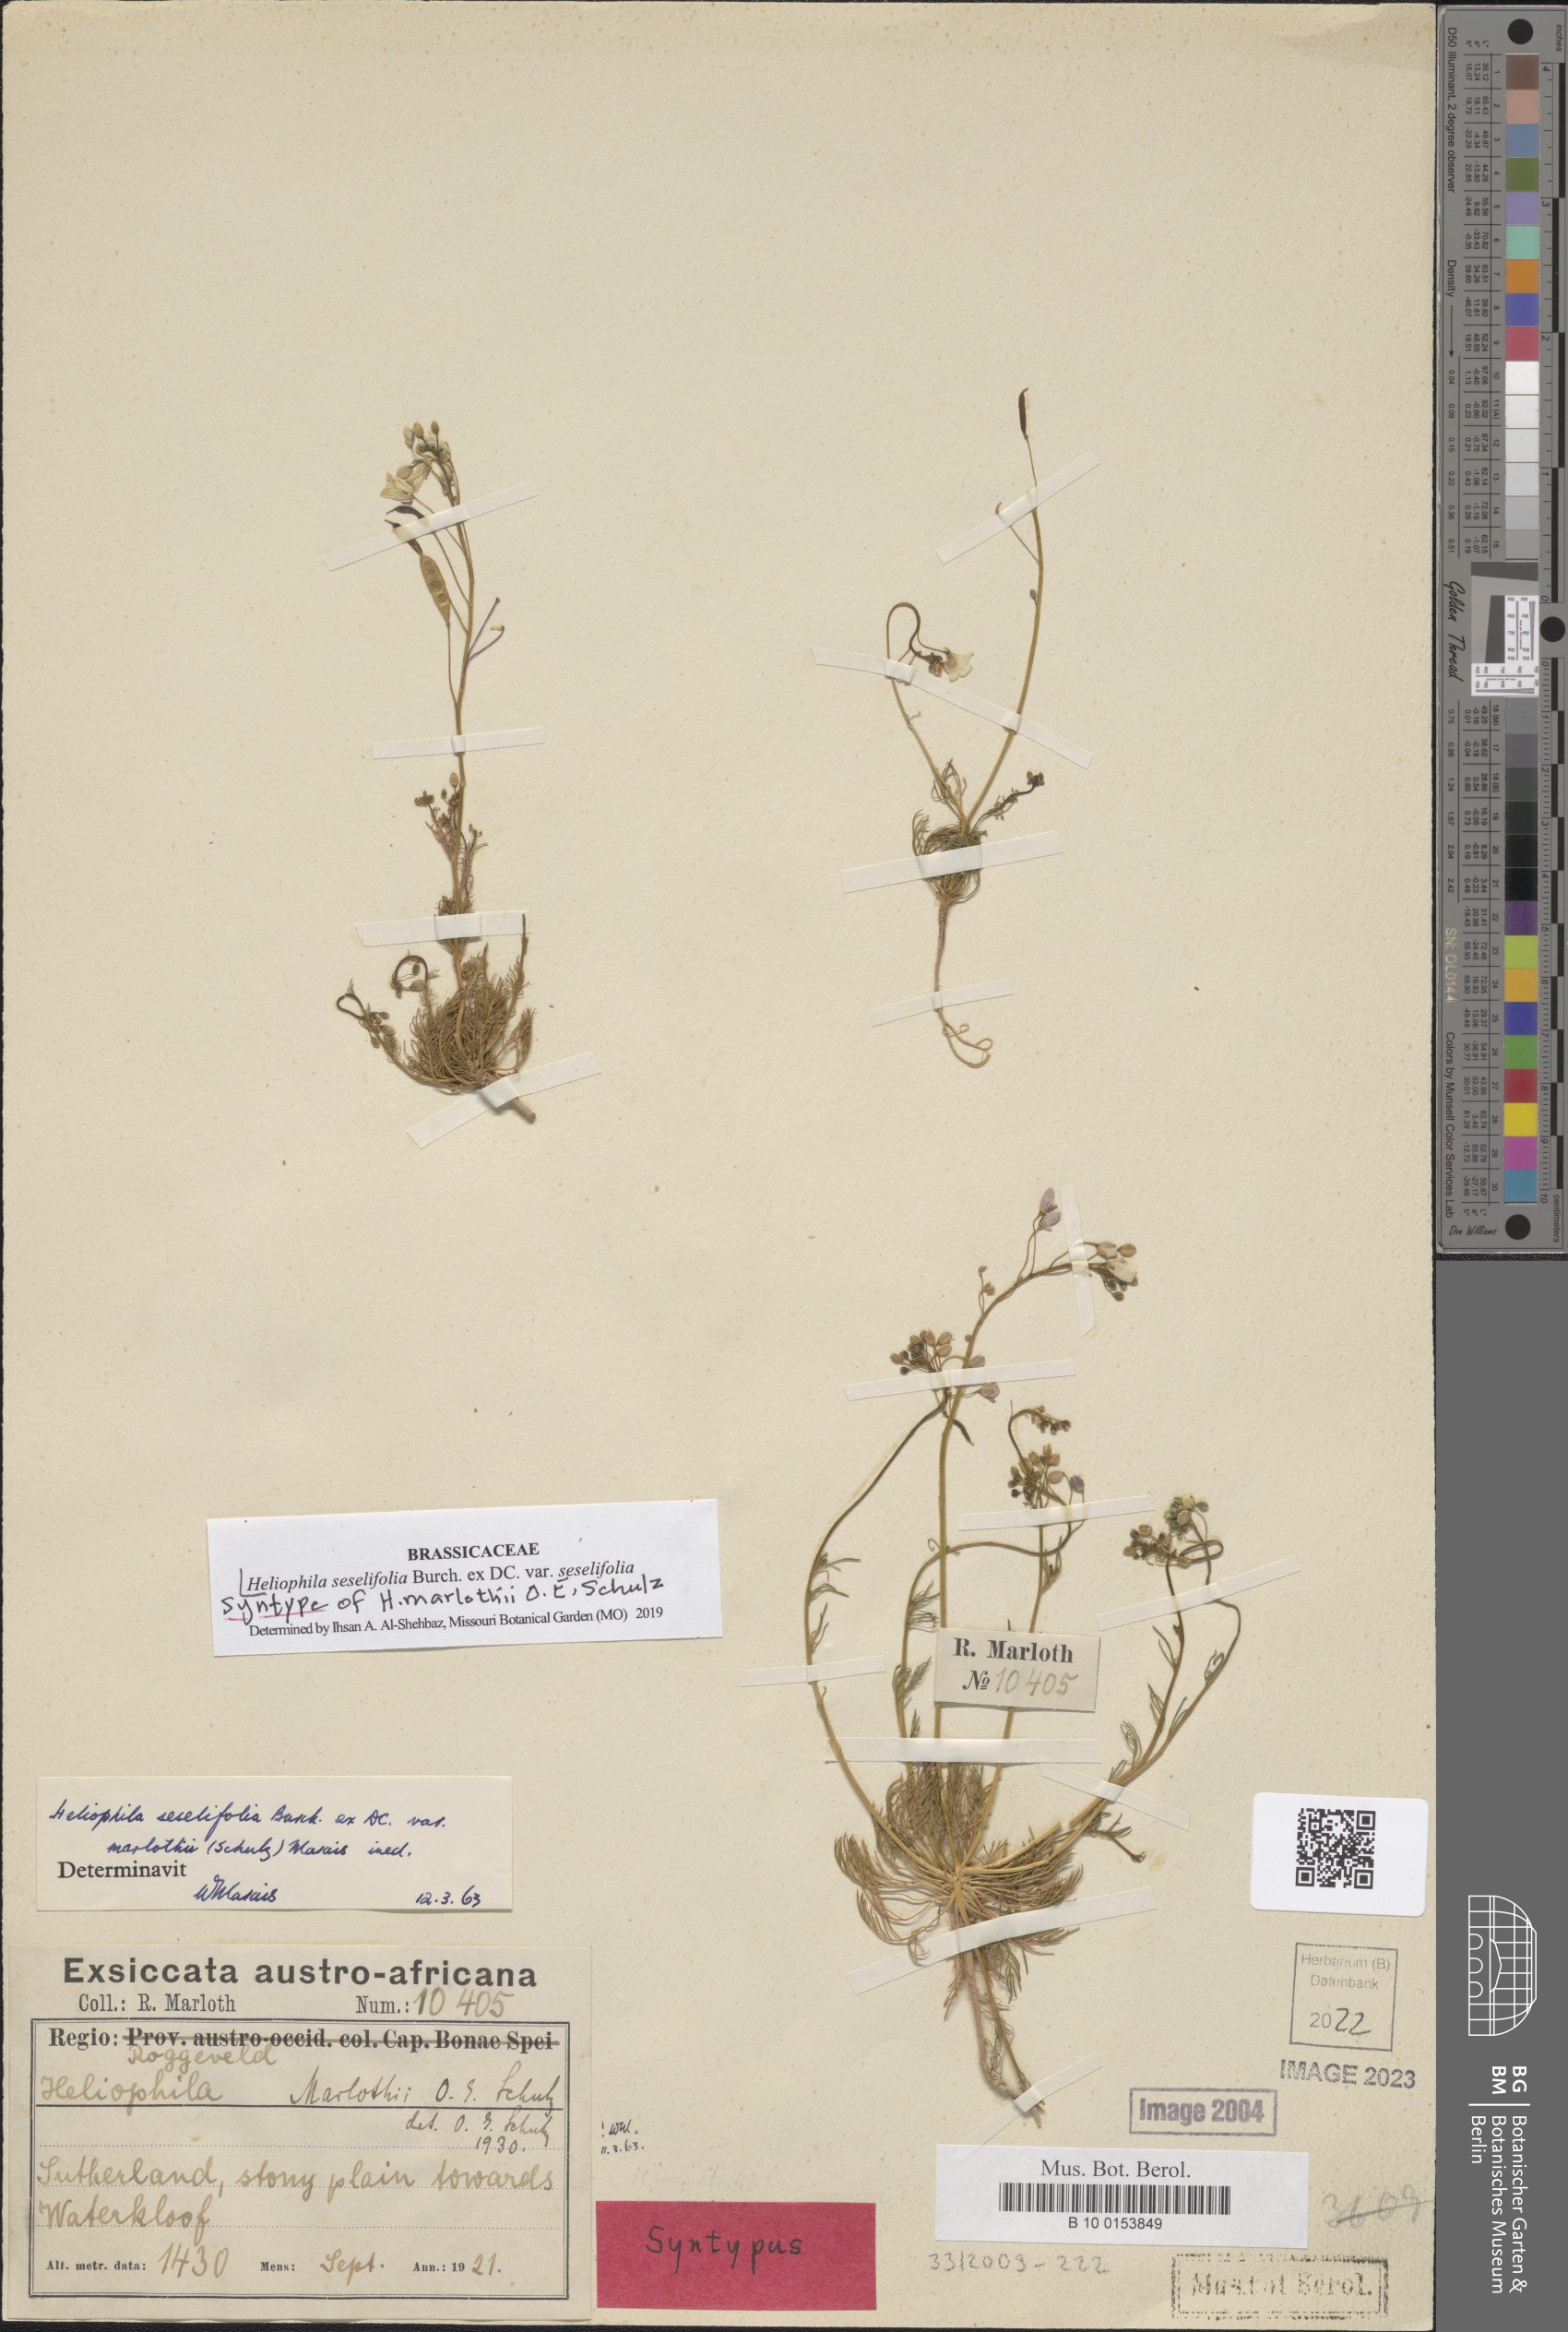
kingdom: Plantae
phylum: Tracheophyta
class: Magnoliopsida
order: Brassicales
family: Brassicaceae
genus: Heliophila
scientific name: Heliophila seselifolia
